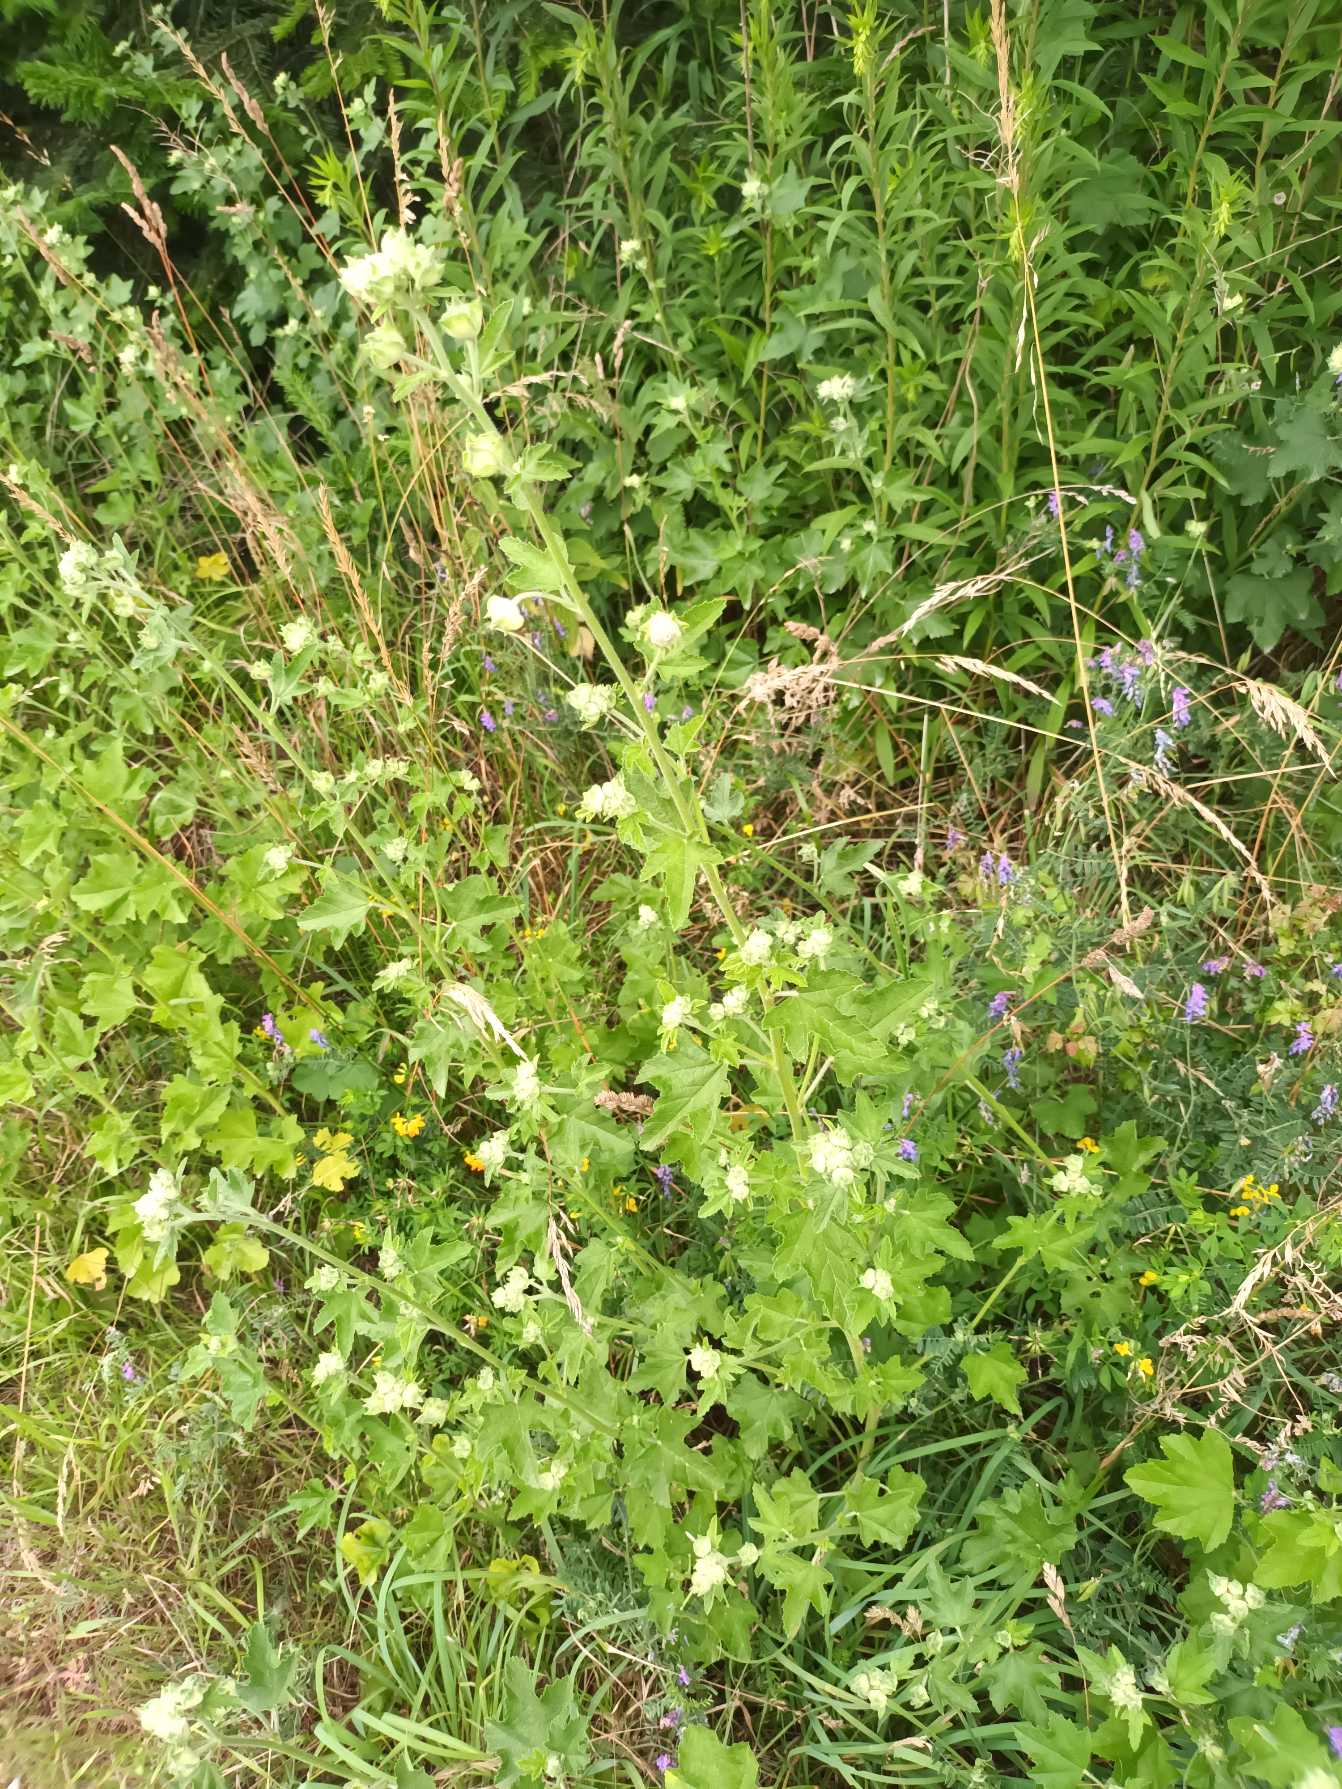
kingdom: Plantae
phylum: Tracheophyta
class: Magnoliopsida
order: Malvales
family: Malvaceae
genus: Malva
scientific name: Malva thuringiaca
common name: Tysk poppelrose
